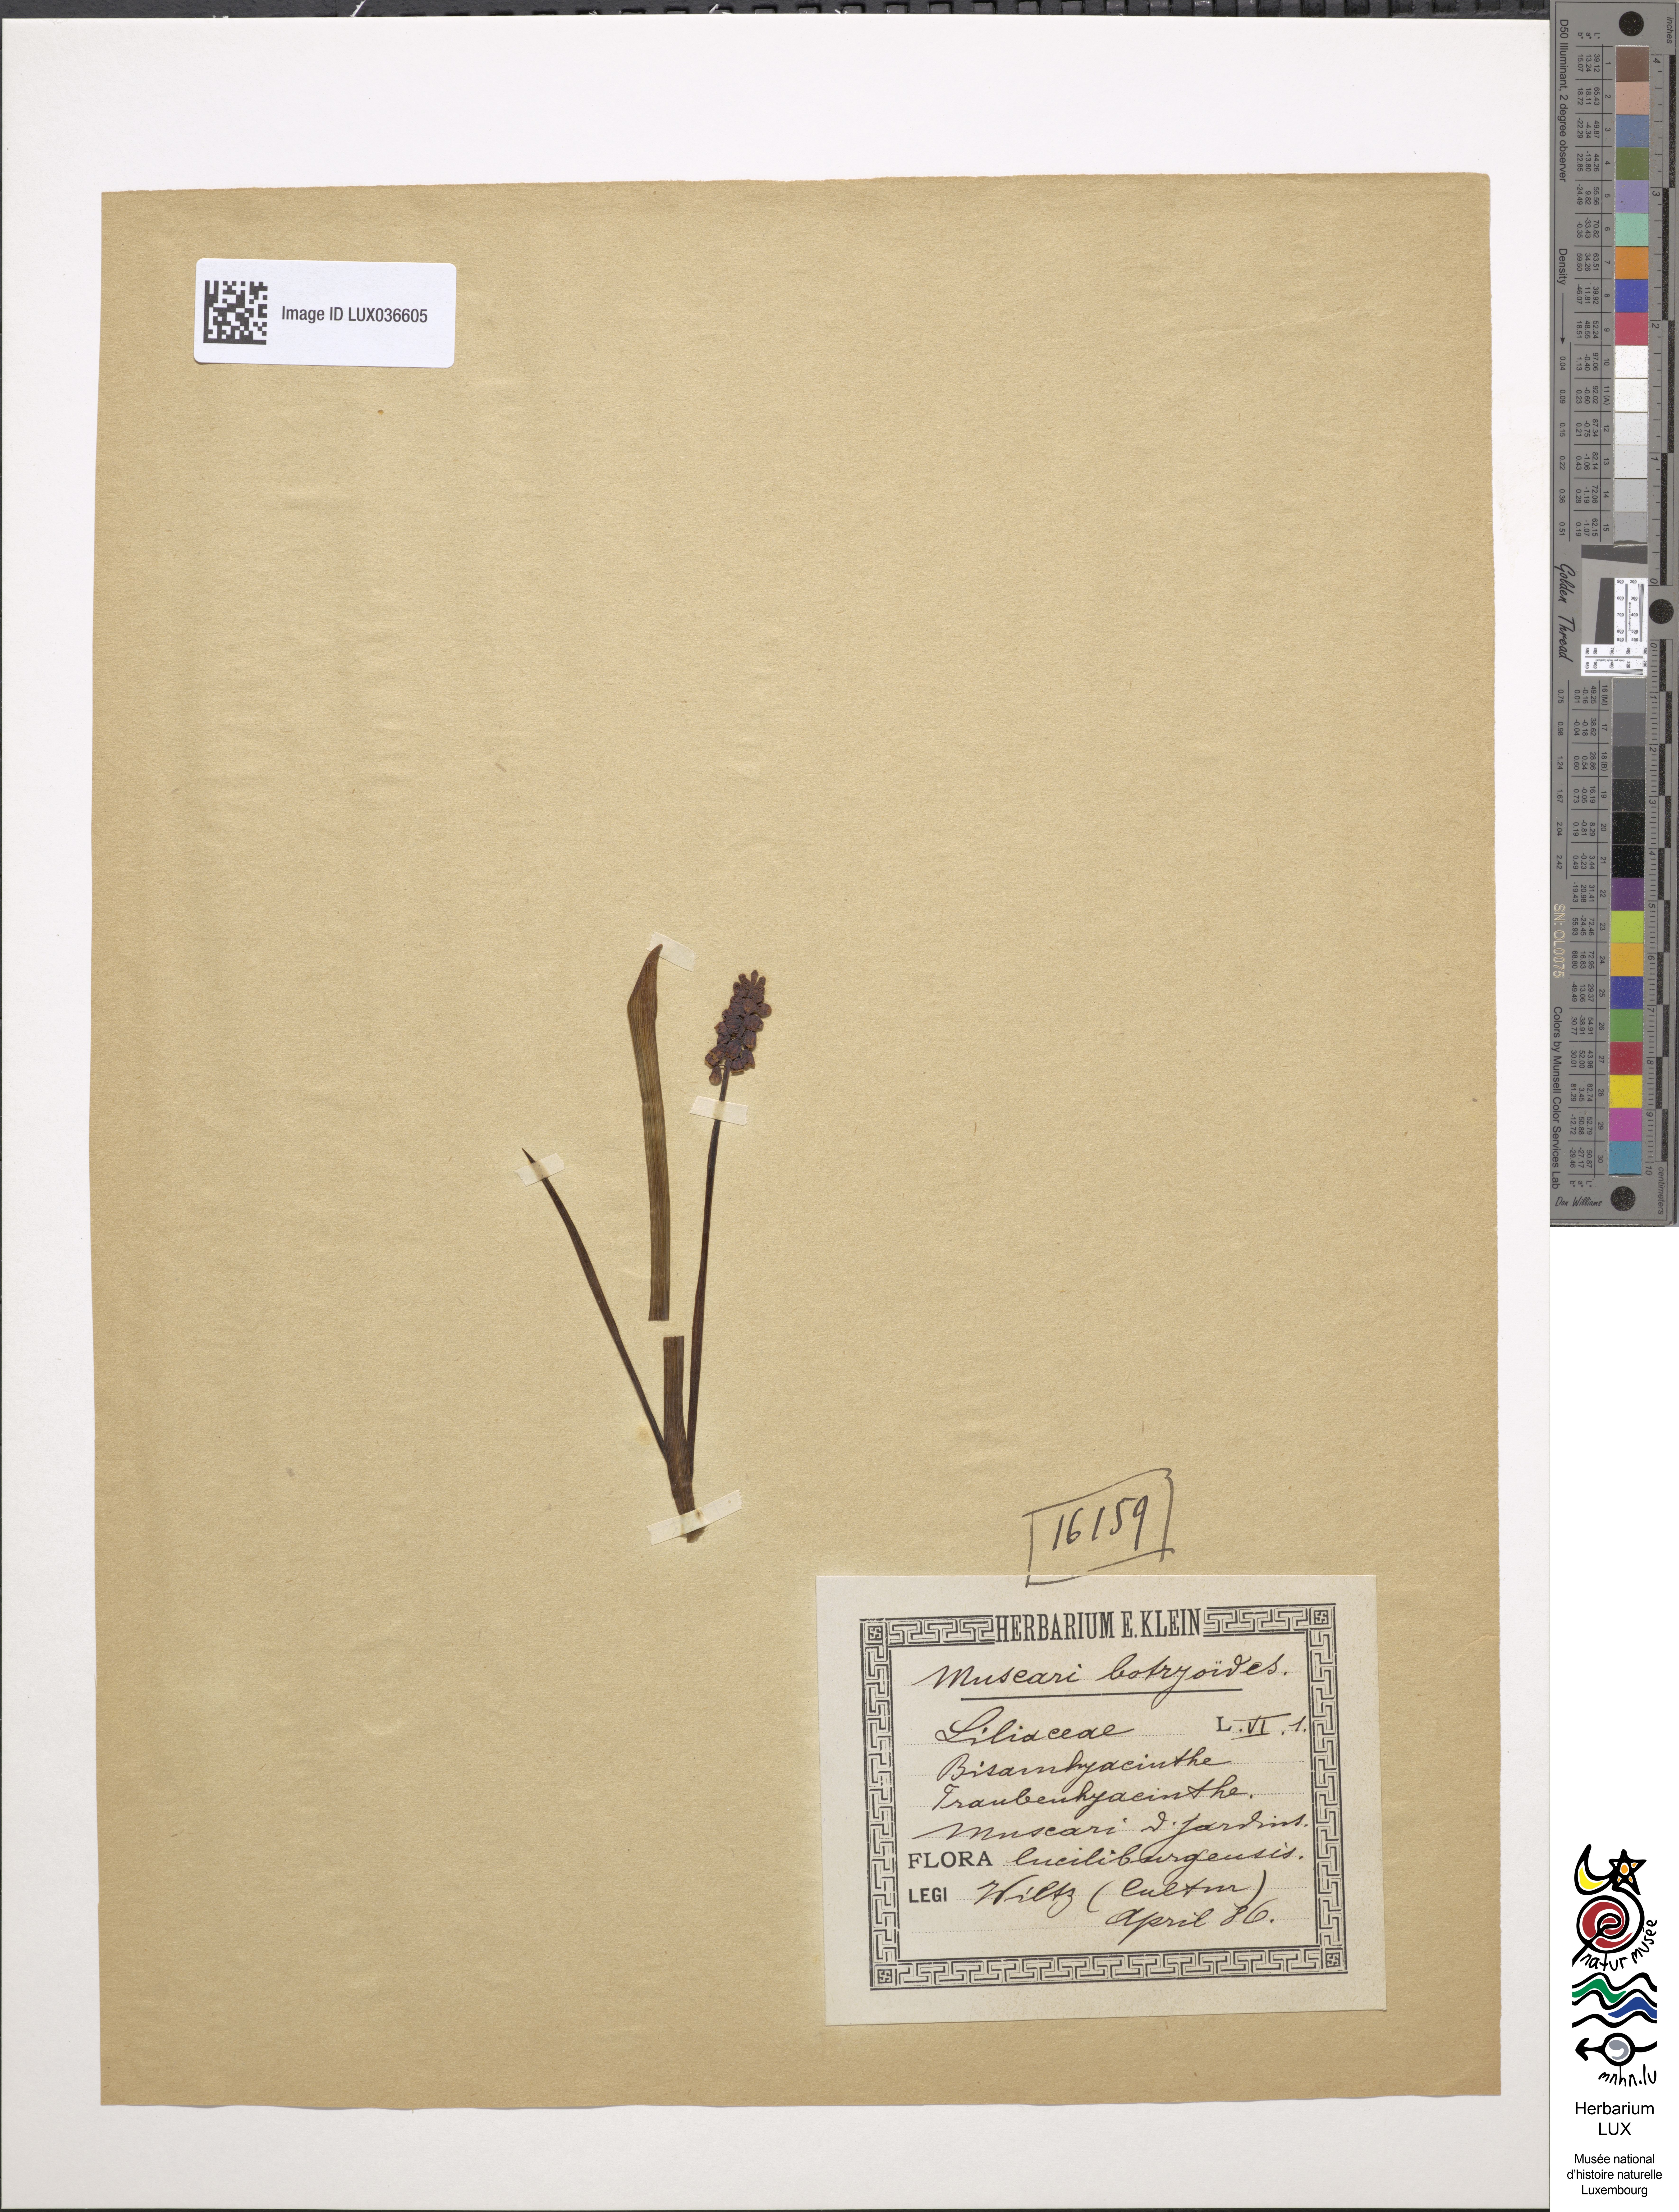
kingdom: Plantae
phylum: Tracheophyta
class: Liliopsida
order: Asparagales
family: Asparagaceae
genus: Muscari
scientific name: Muscari botryoides
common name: Compact grape-hyacinth
